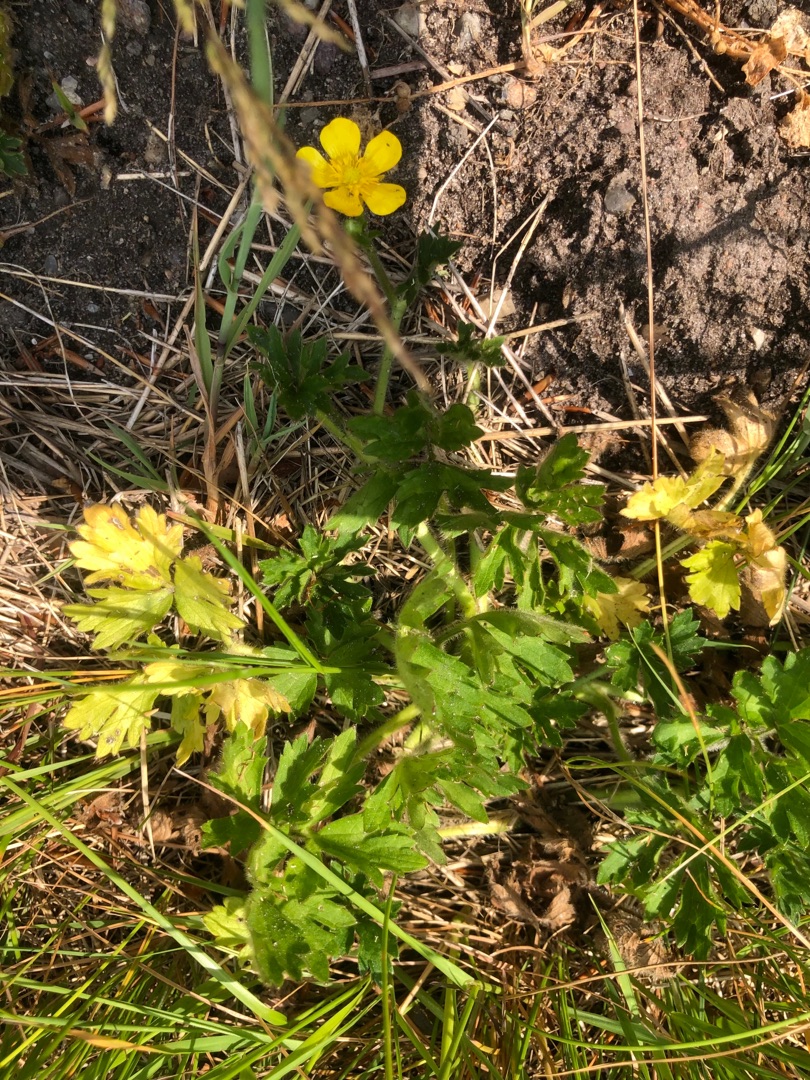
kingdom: Plantae
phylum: Tracheophyta
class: Magnoliopsida
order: Ranunculales
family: Ranunculaceae
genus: Ranunculus
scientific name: Ranunculus repens
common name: Lav ranunkel
